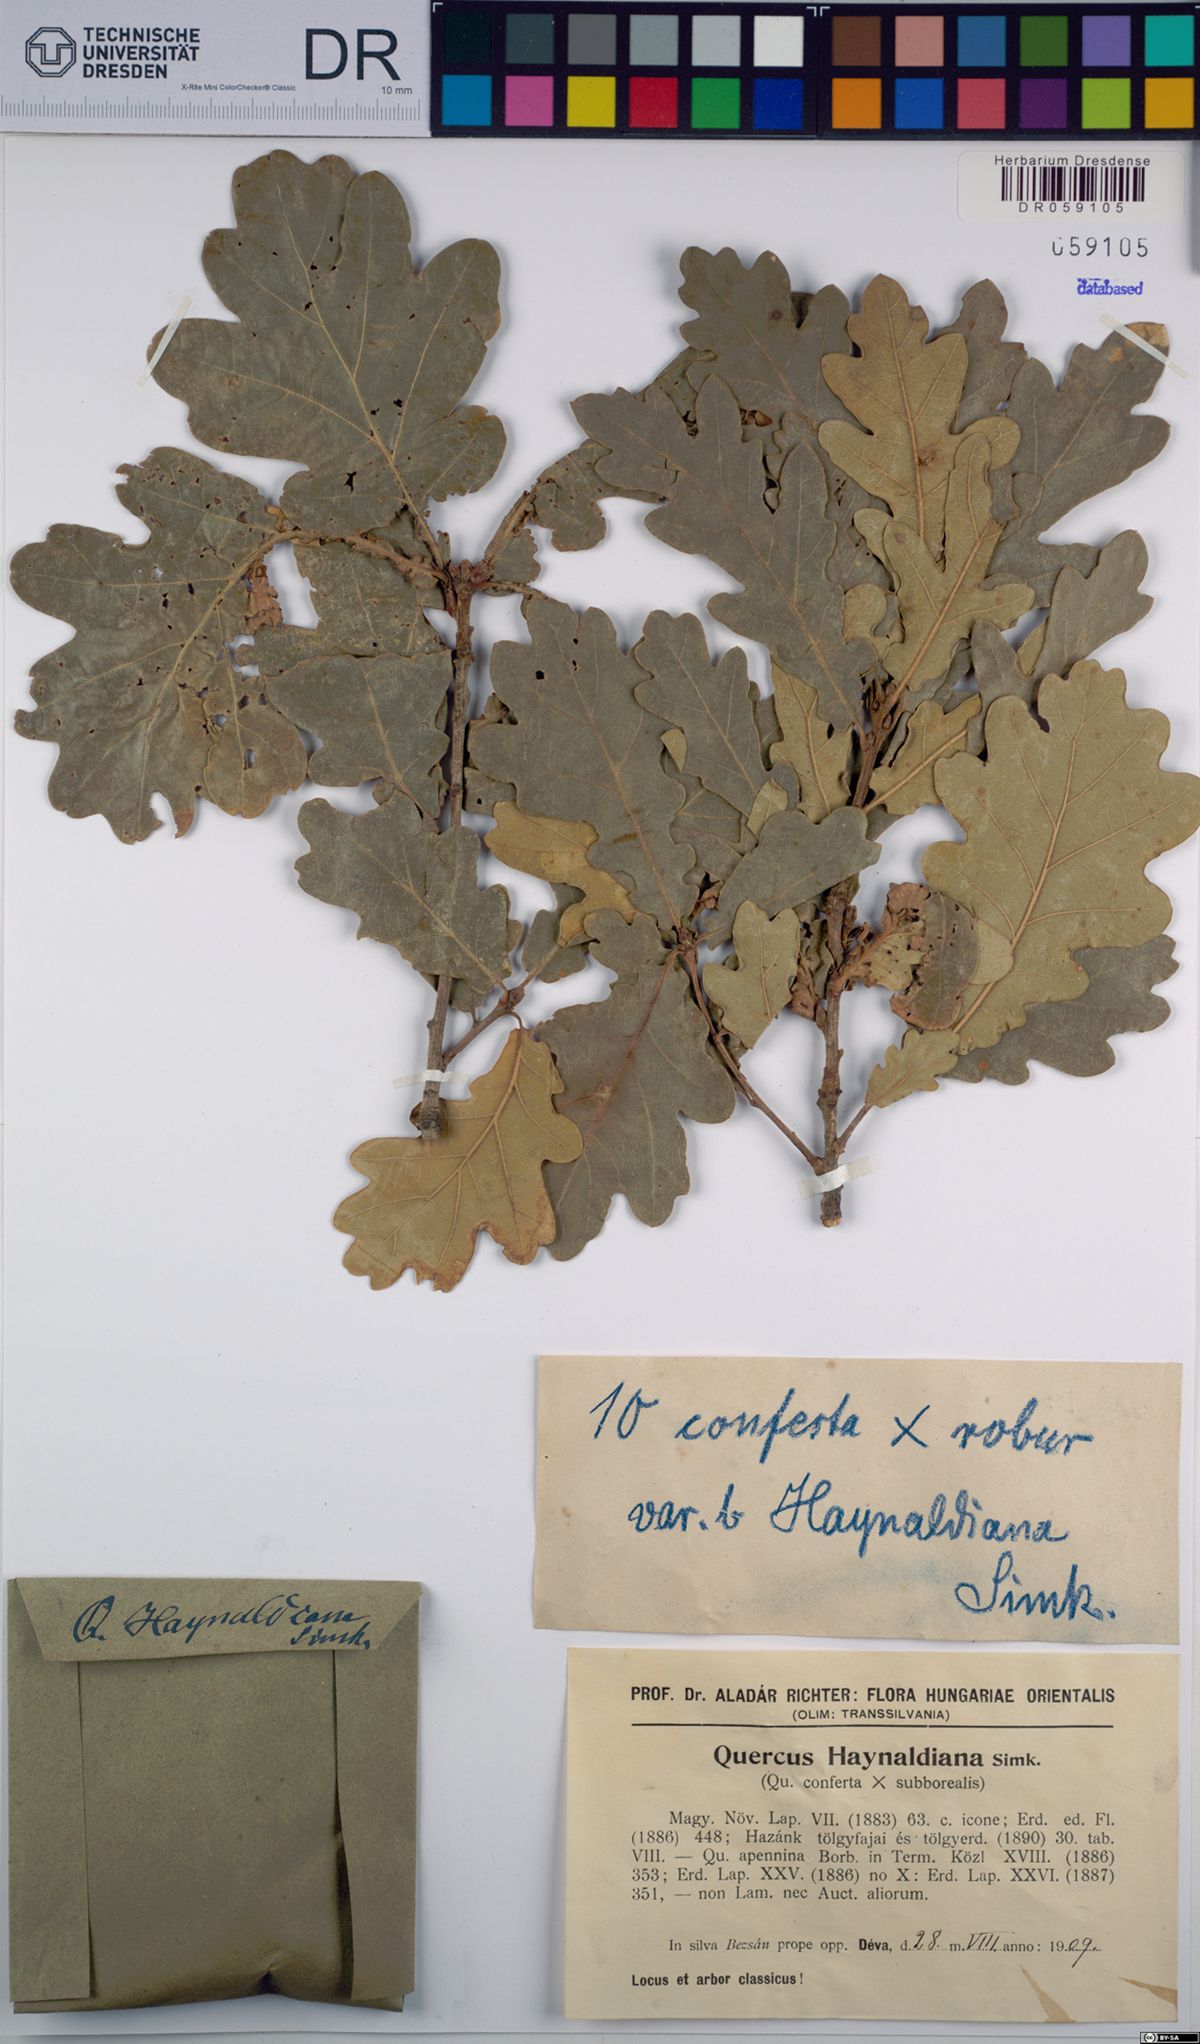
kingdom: Plantae
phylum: Tracheophyta
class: Magnoliopsida
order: Fagales
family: Fagaceae
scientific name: Fagaceae
